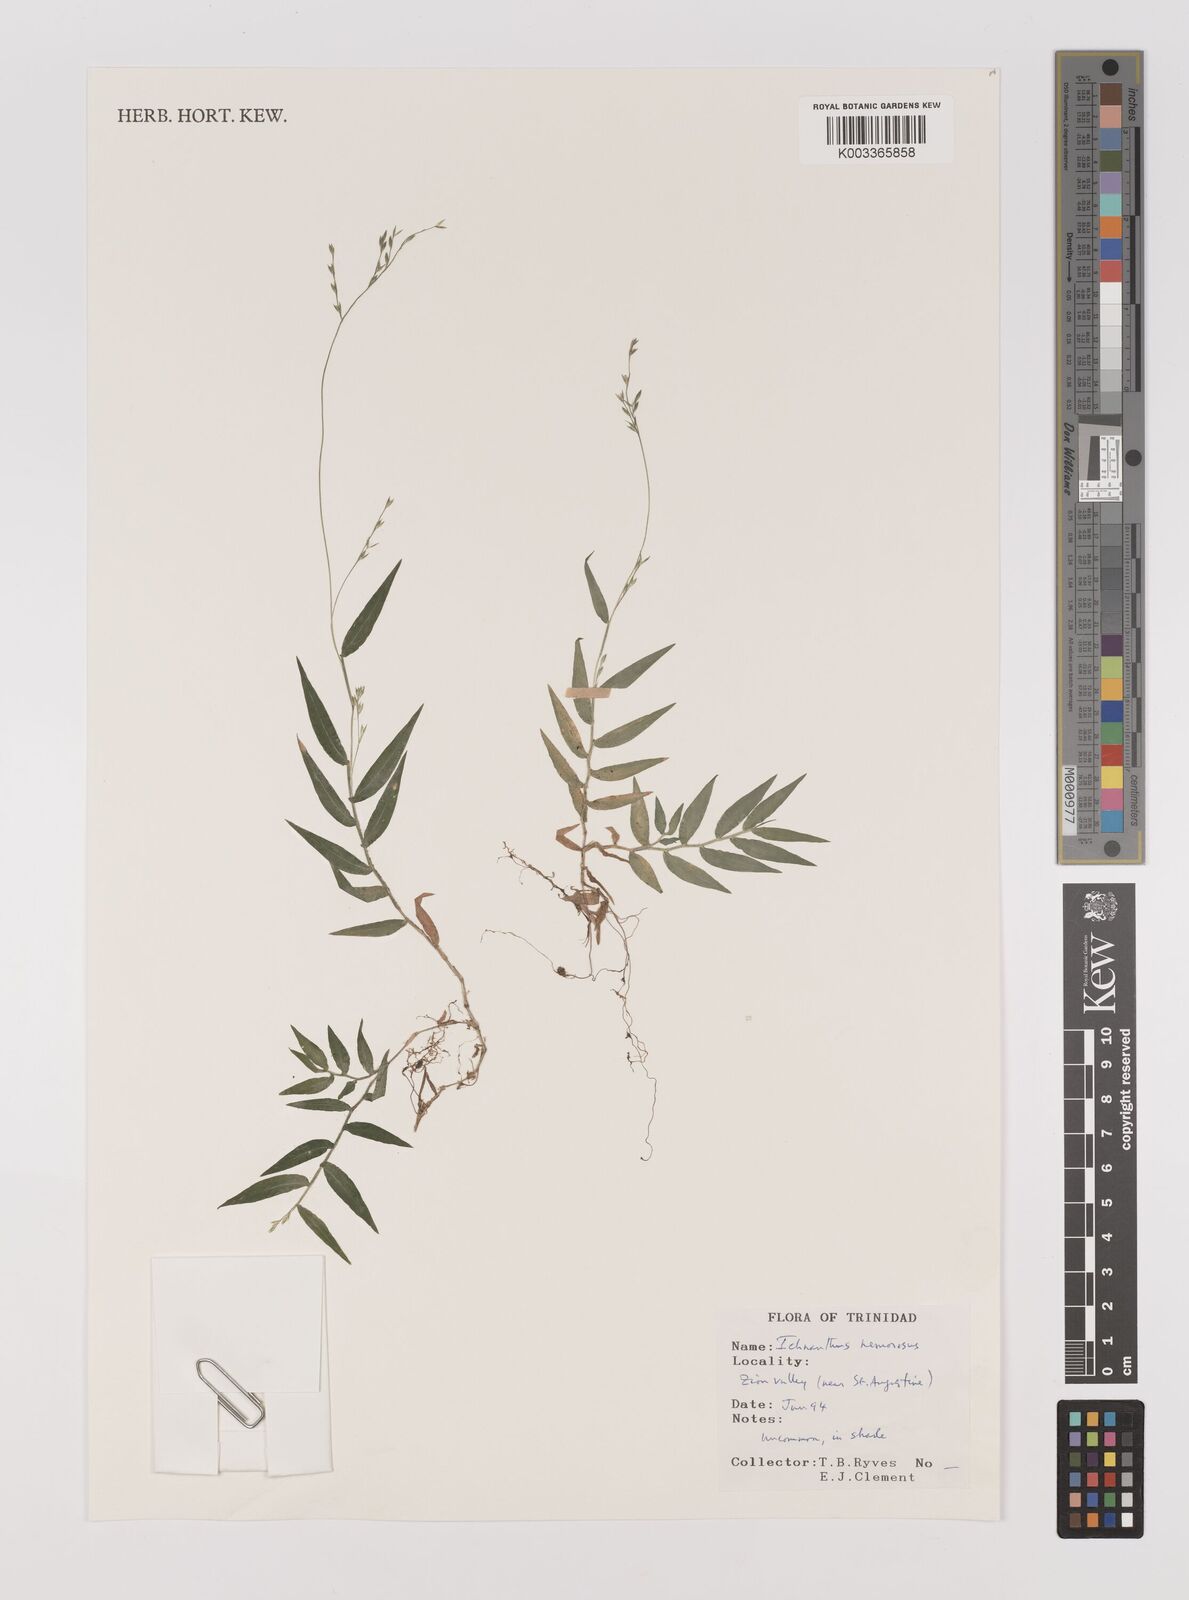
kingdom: Plantae
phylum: Tracheophyta
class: Liliopsida
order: Poales
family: Poaceae
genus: Ichnanthus
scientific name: Ichnanthus nemorosus
